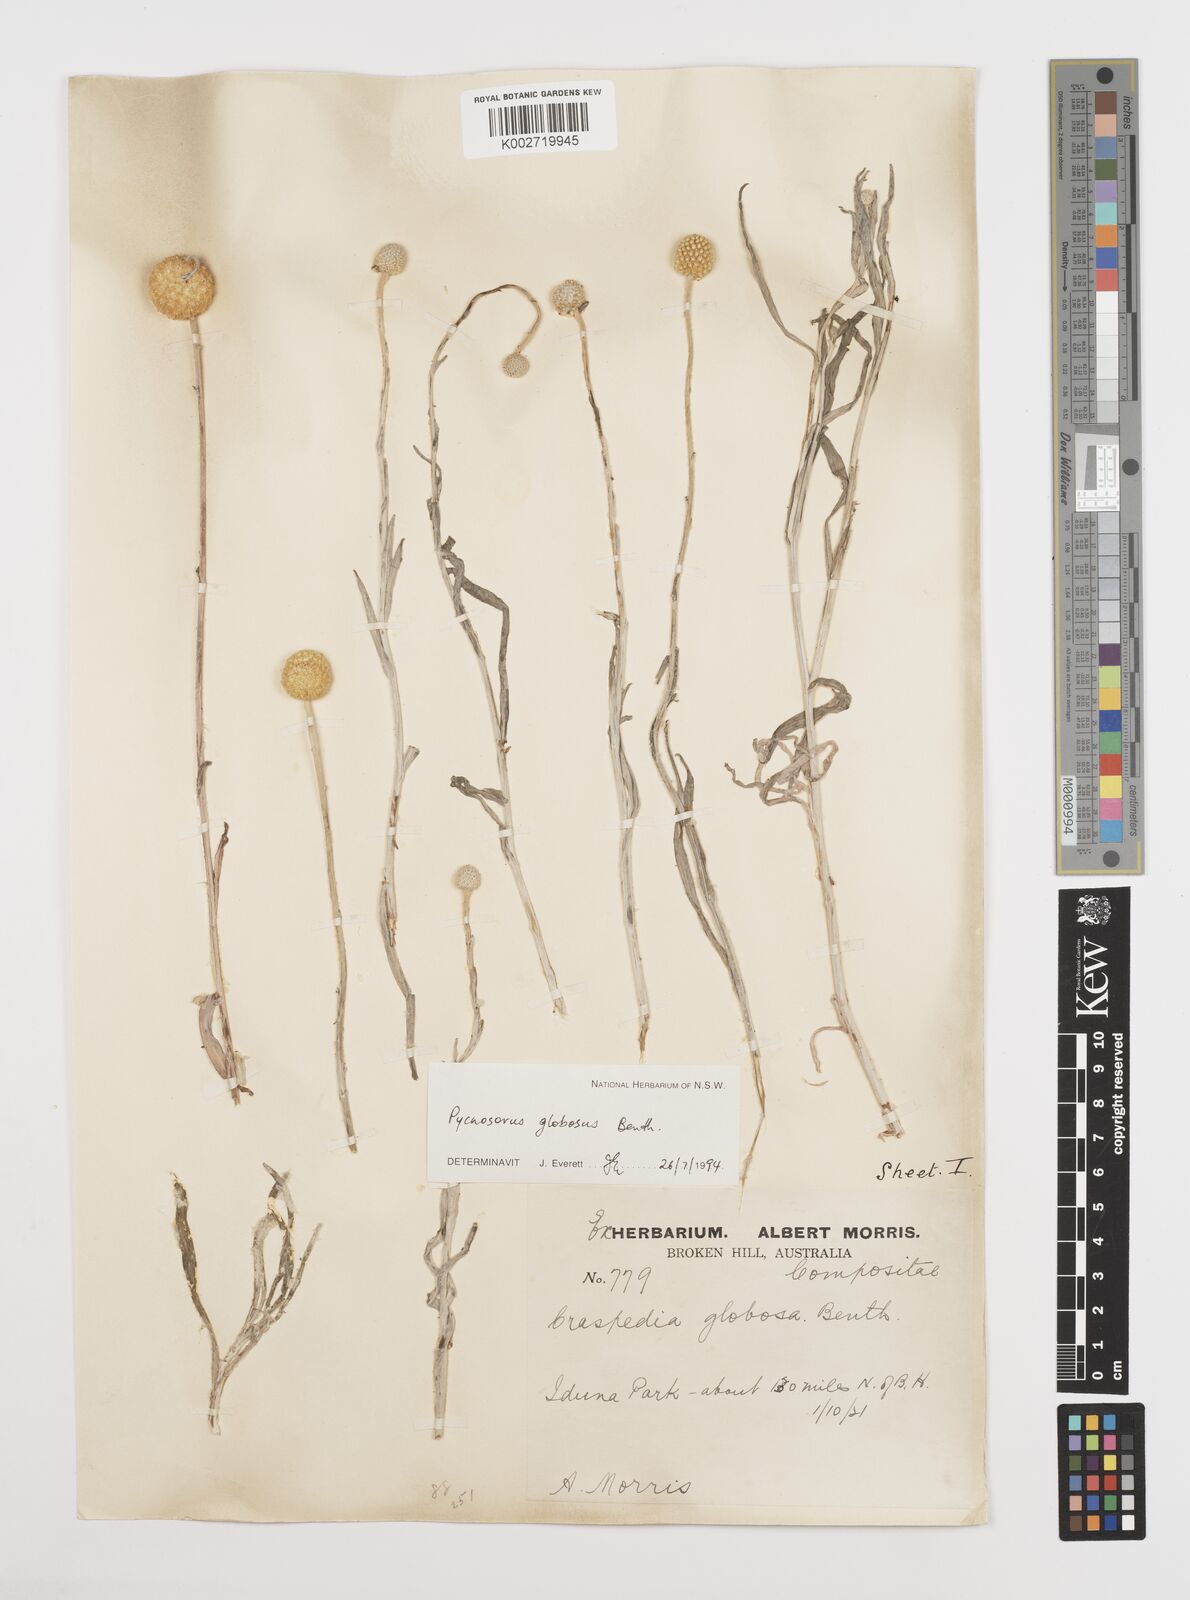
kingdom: Plantae
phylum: Tracheophyta
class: Magnoliopsida
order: Asterales
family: Asteraceae
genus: Pycnosorus
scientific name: Pycnosorus globosus
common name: Drumsticks
